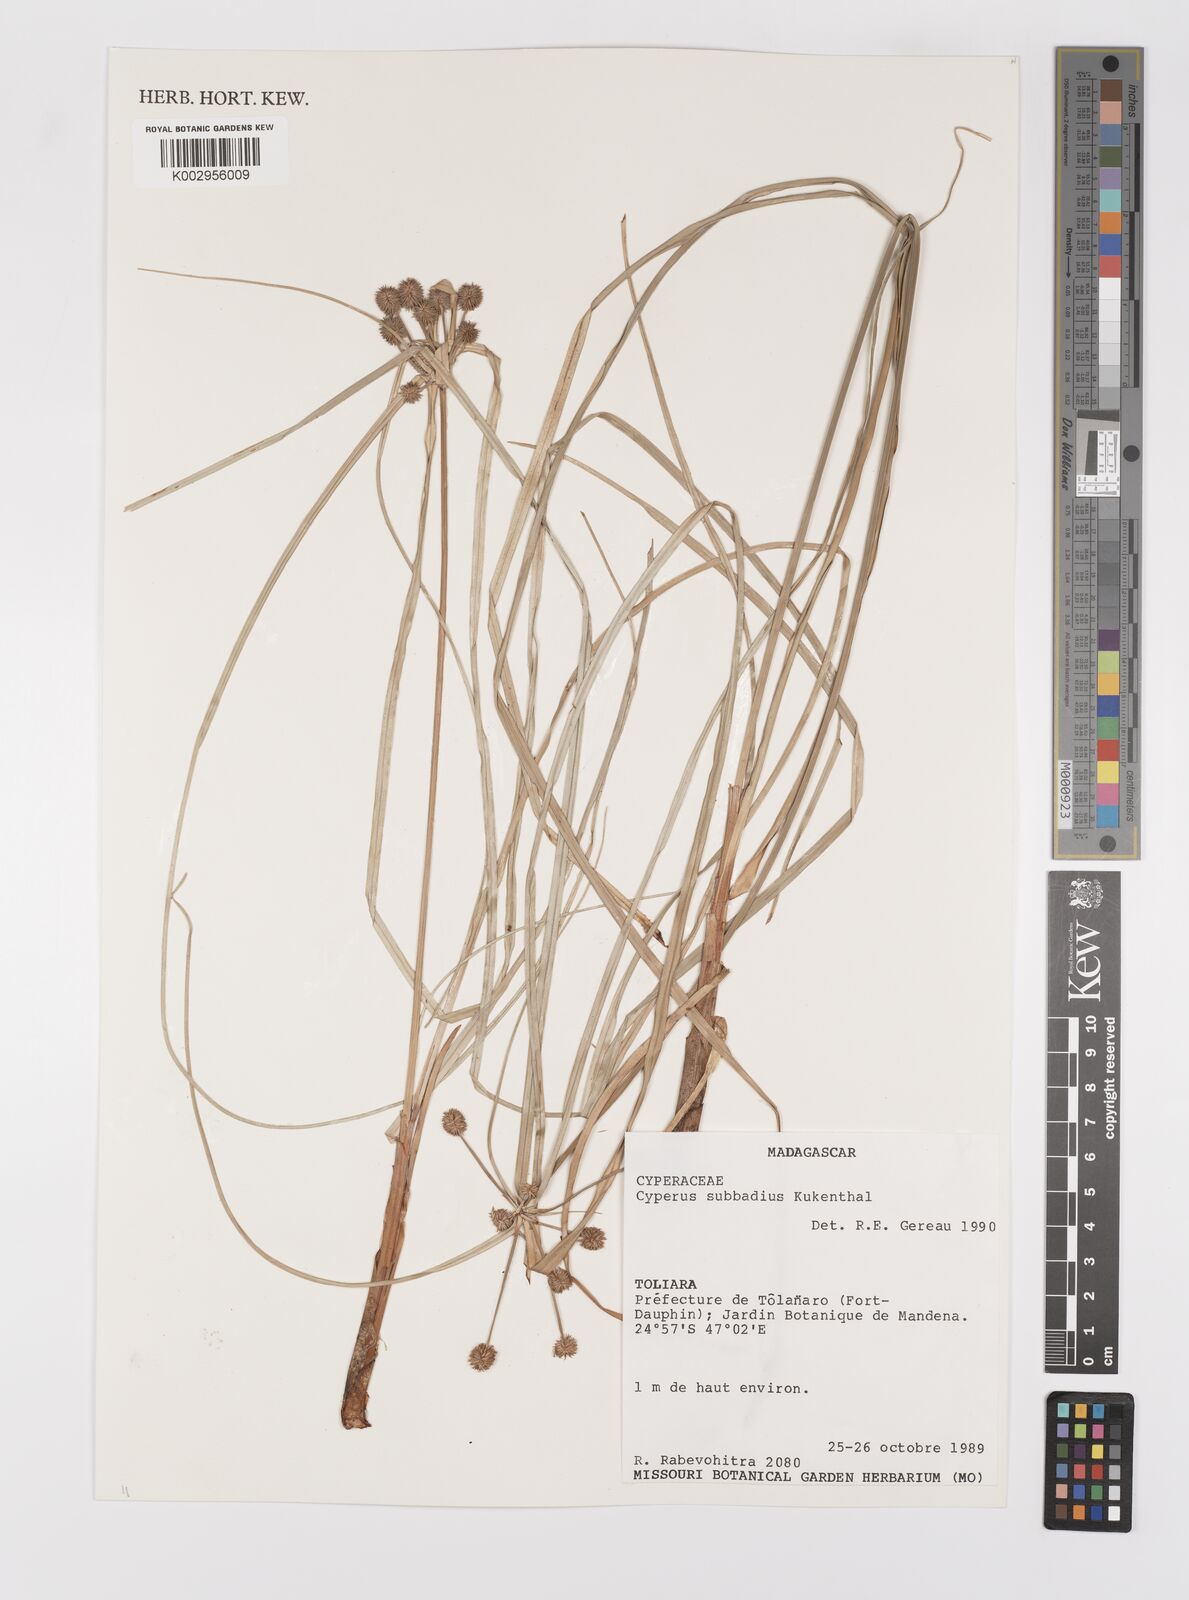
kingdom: Plantae
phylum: Tracheophyta
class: Liliopsida
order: Poales
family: Cyperaceae
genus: Cyperus
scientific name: Cyperus subbadius
